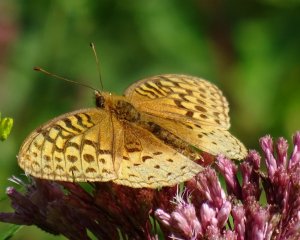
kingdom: Animalia
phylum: Arthropoda
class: Insecta
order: Lepidoptera
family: Nymphalidae
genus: Speyeria
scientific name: Speyeria cybele
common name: Great Spangled Fritillary
